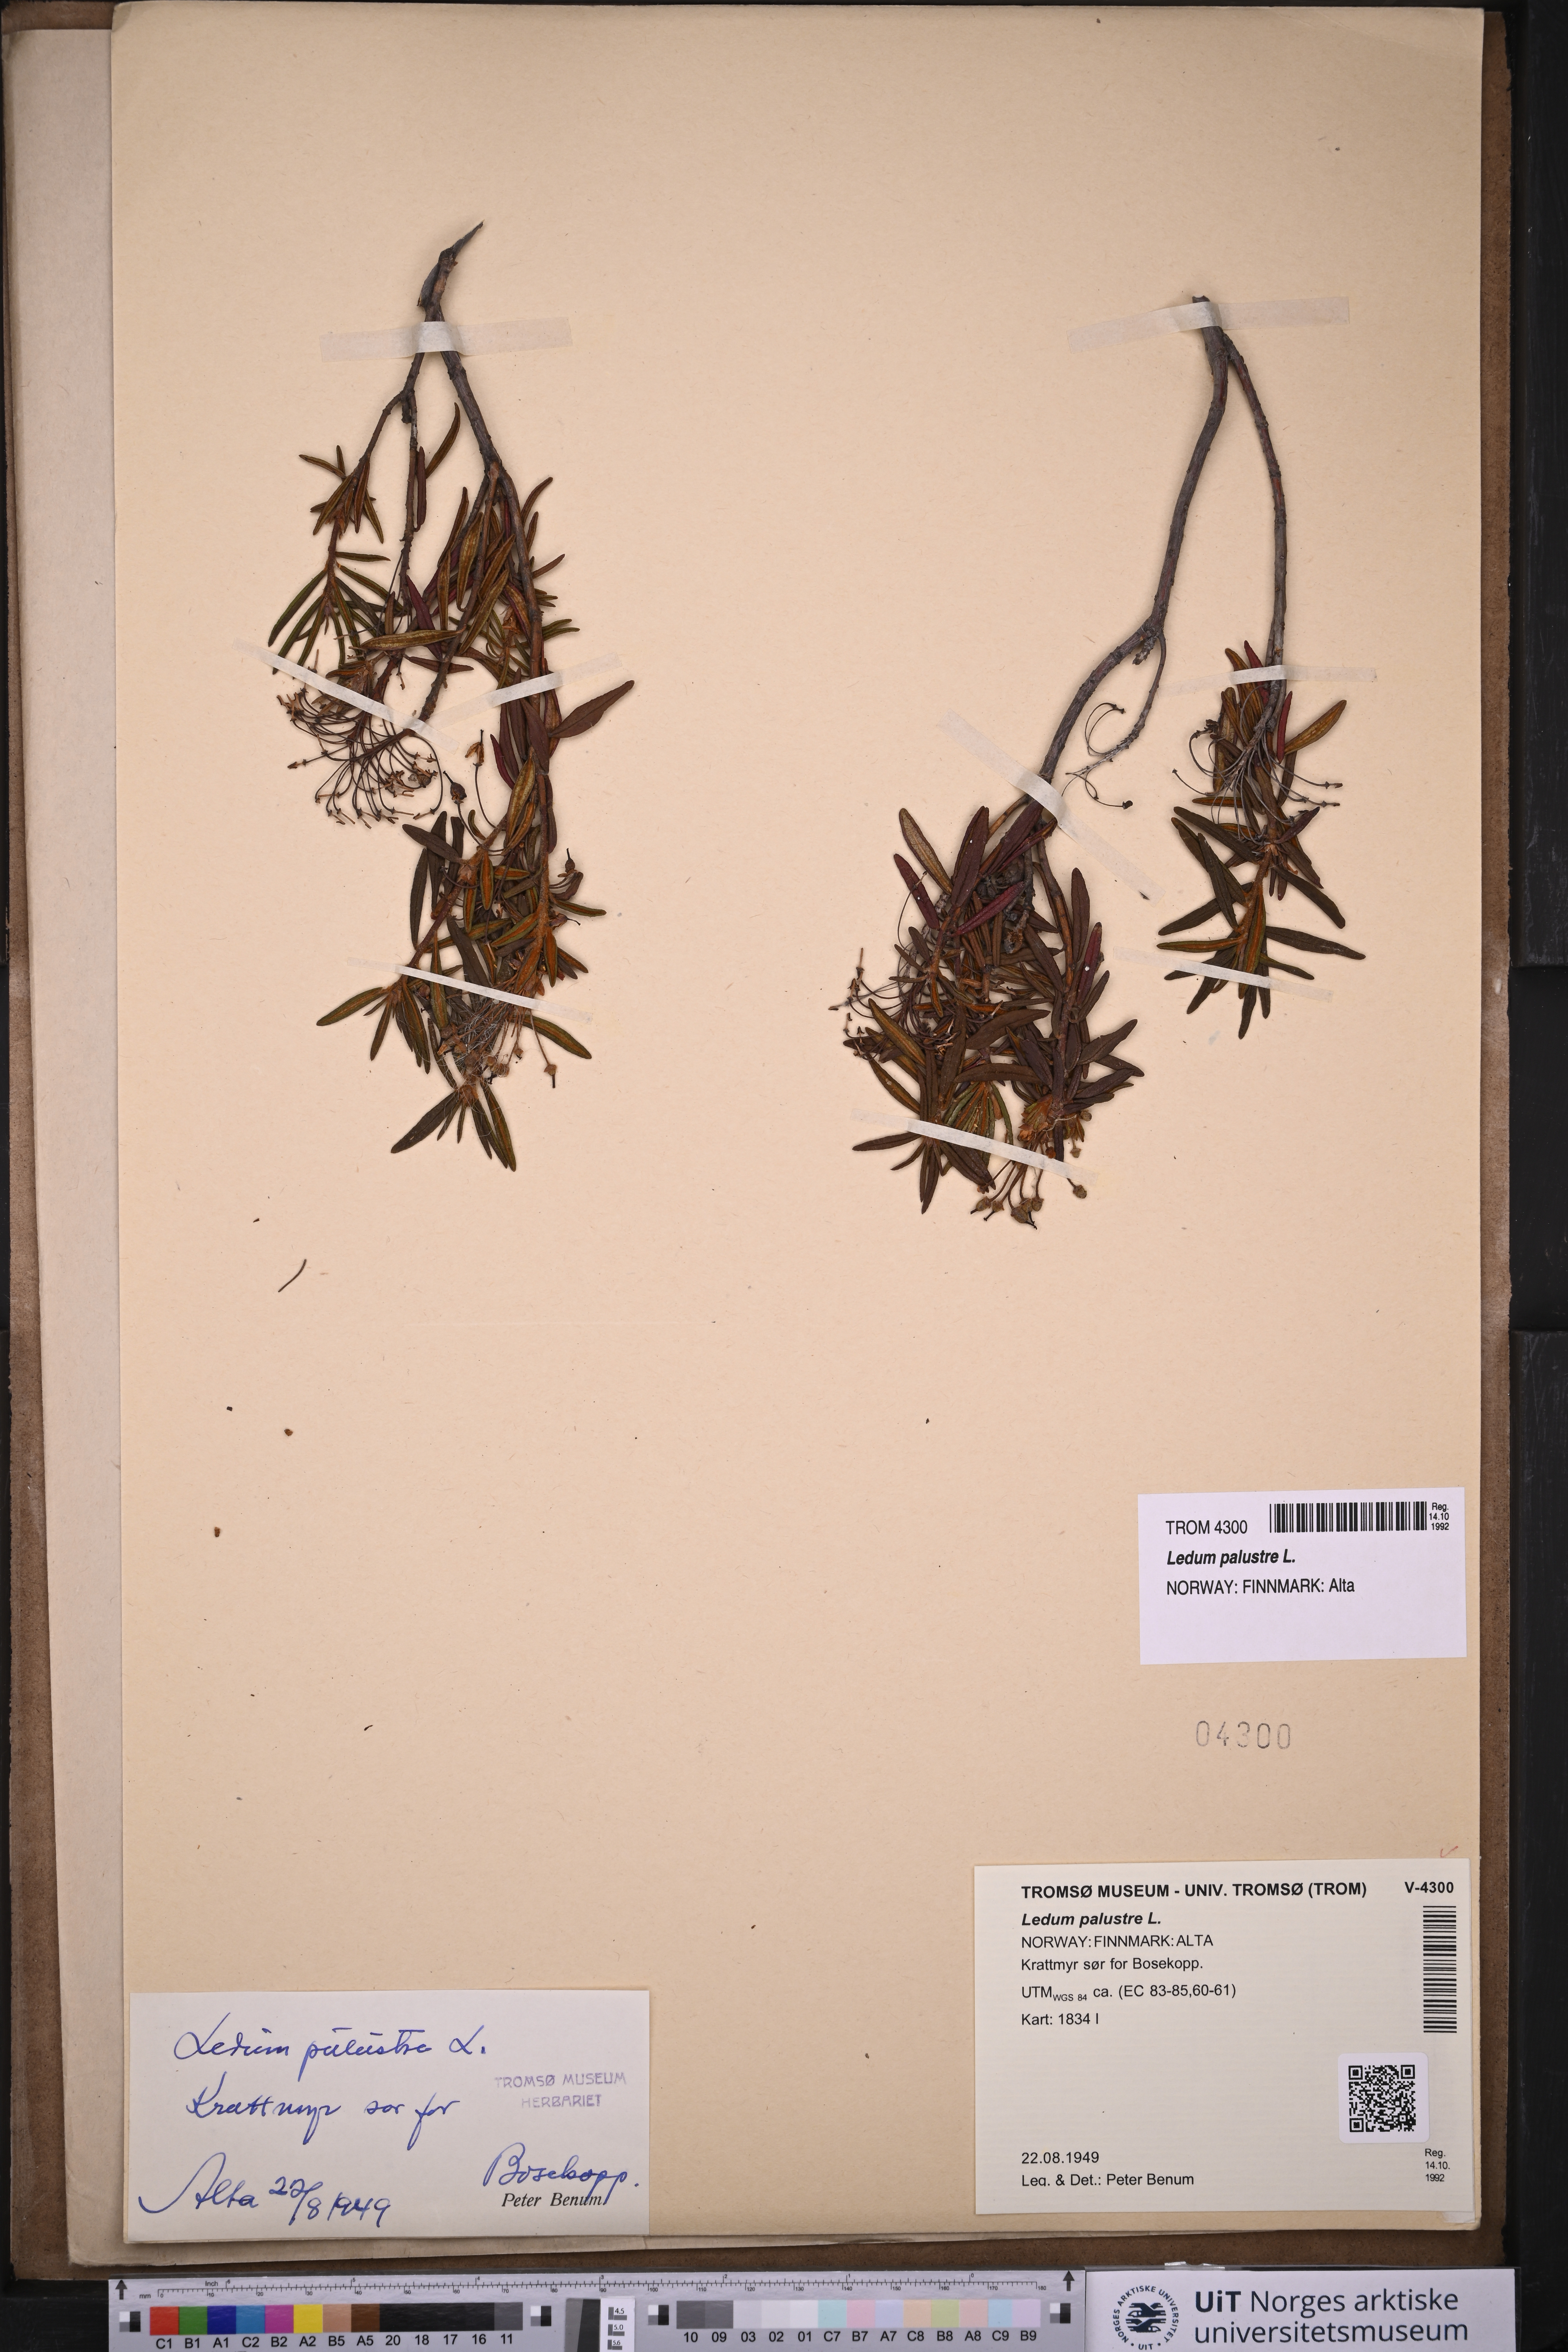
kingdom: Plantae
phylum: Tracheophyta
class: Magnoliopsida
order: Ericales
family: Ericaceae
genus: Rhododendron
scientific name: Rhododendron tomentosum
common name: Marsh labrador tea
